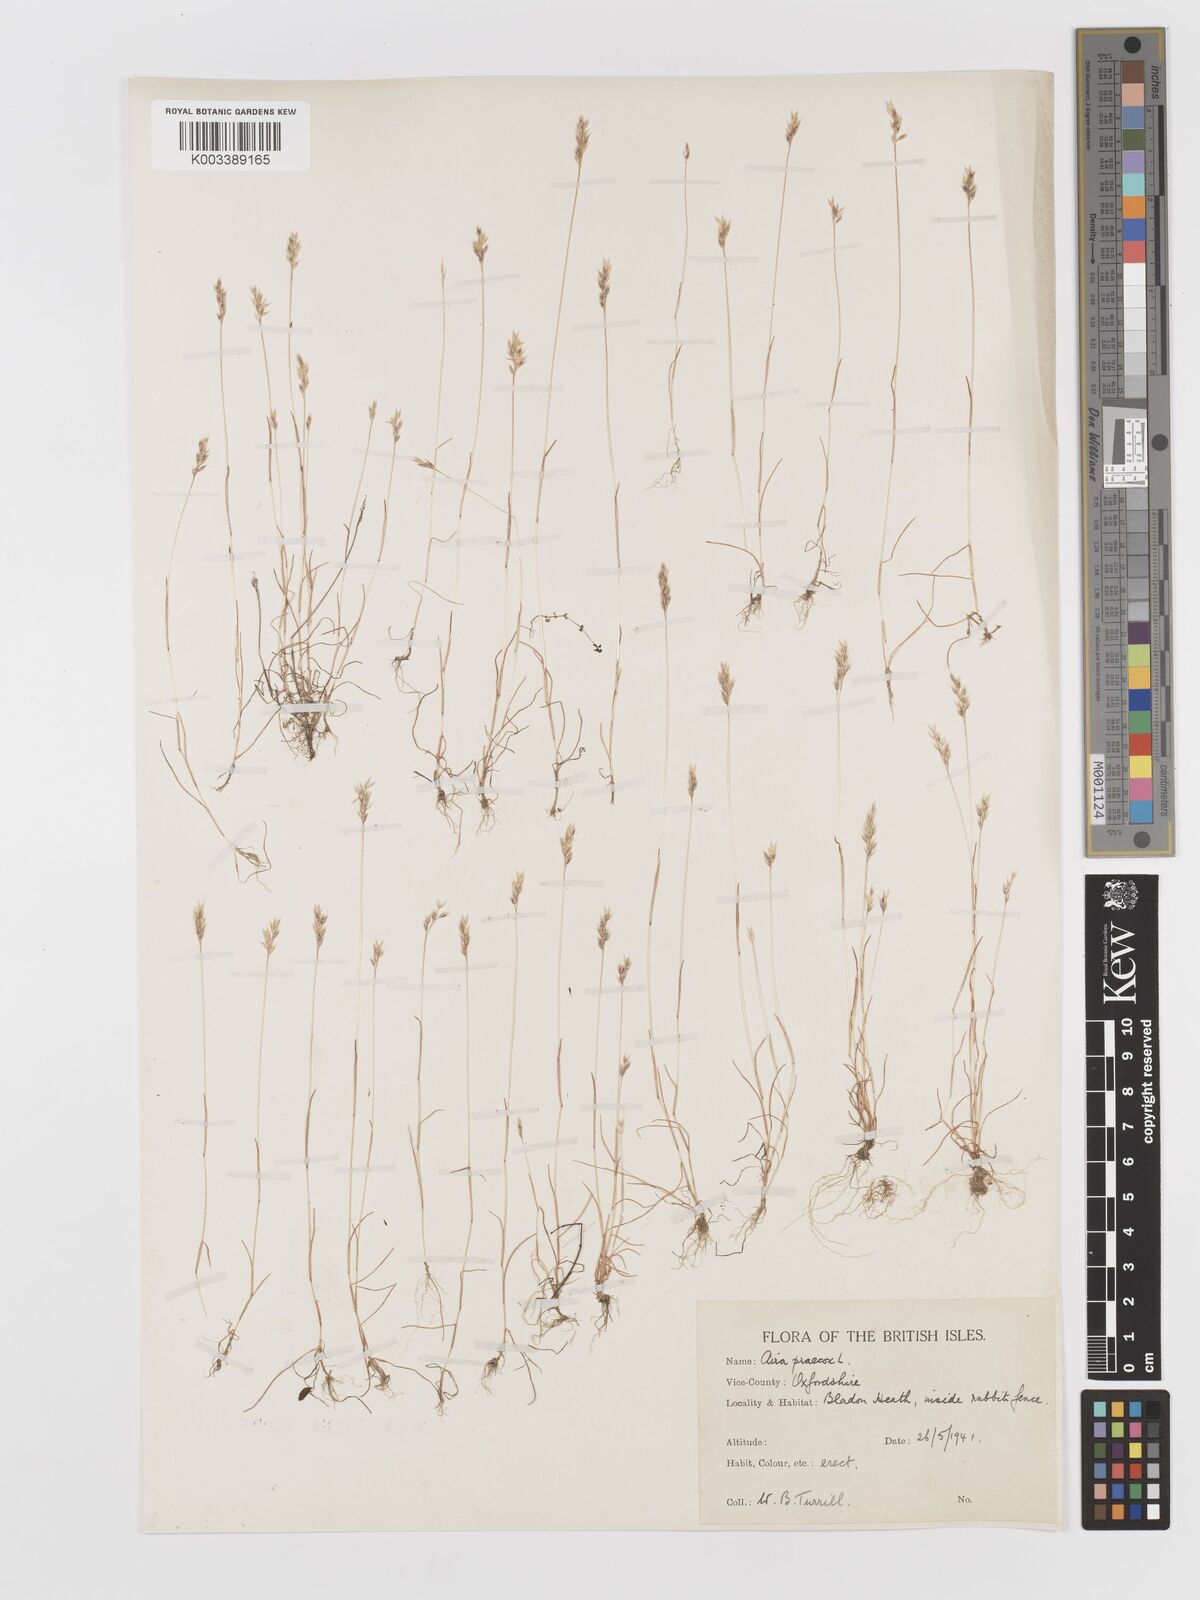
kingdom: Plantae
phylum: Tracheophyta
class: Liliopsida
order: Poales
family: Poaceae
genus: Aira
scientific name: Aira praecox
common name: Early hair-grass
